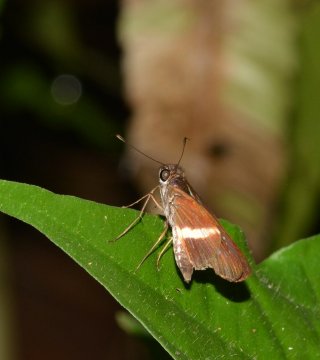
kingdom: Animalia
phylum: Arthropoda
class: Insecta
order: Lepidoptera
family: Hesperiidae
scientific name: Hesperiidae
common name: Skippers
